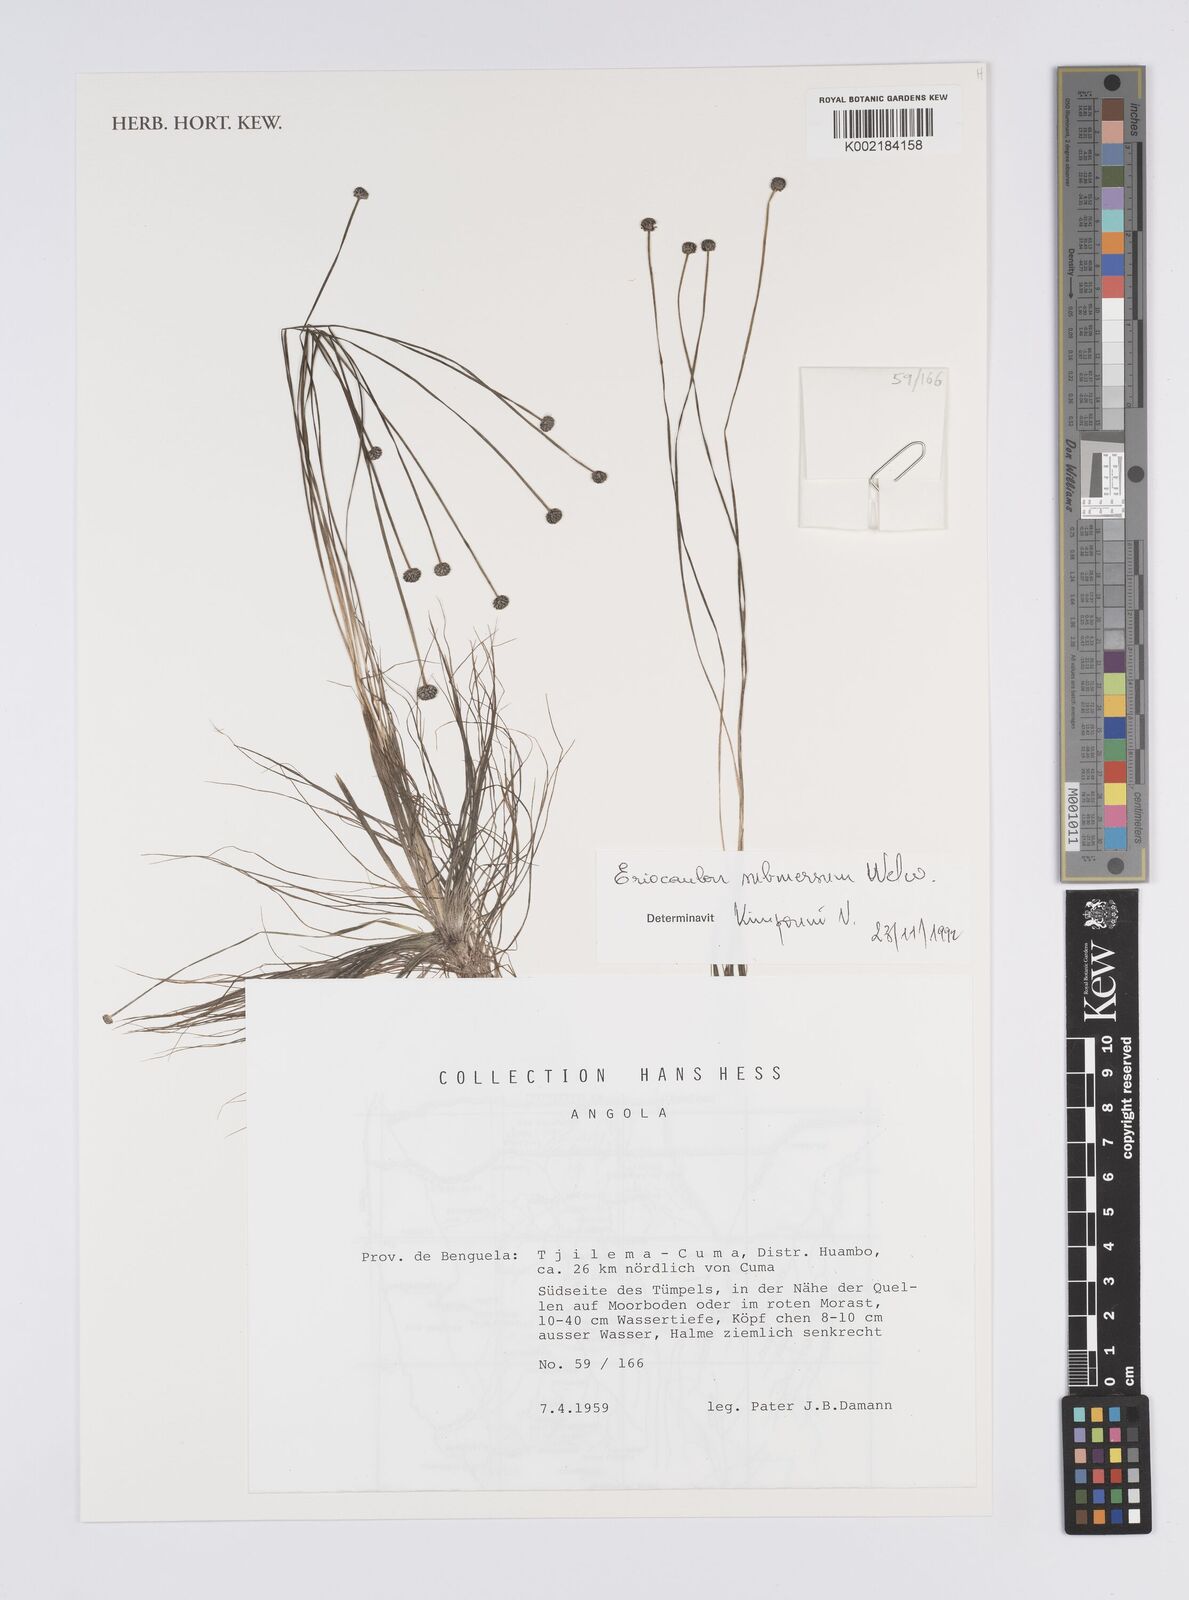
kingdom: Plantae
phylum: Tracheophyta
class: Liliopsida
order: Poales
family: Eriocaulaceae
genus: Eriocaulon
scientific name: Eriocaulon carsonii
